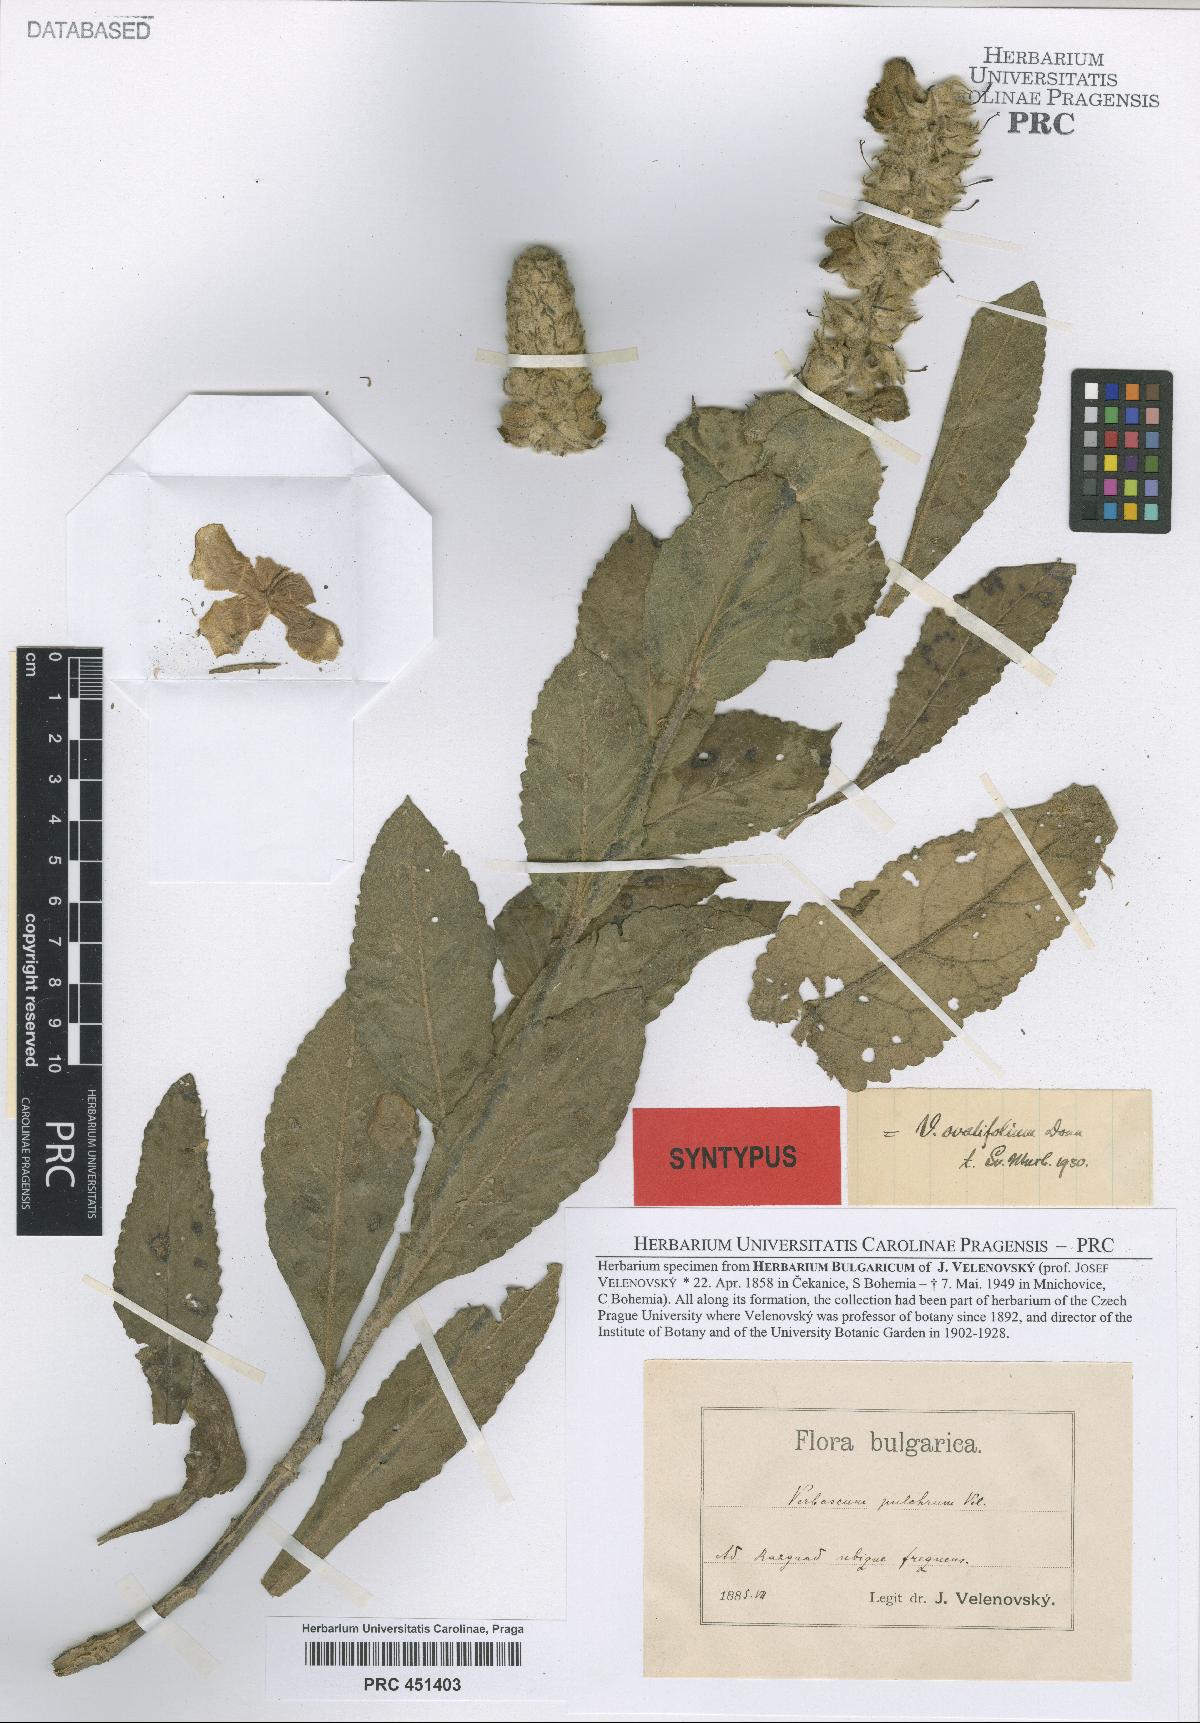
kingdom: Plantae
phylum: Tracheophyta
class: Magnoliopsida
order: Lamiales
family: Scrophulariaceae
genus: Verbascum
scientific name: Verbascum ovalifolium
